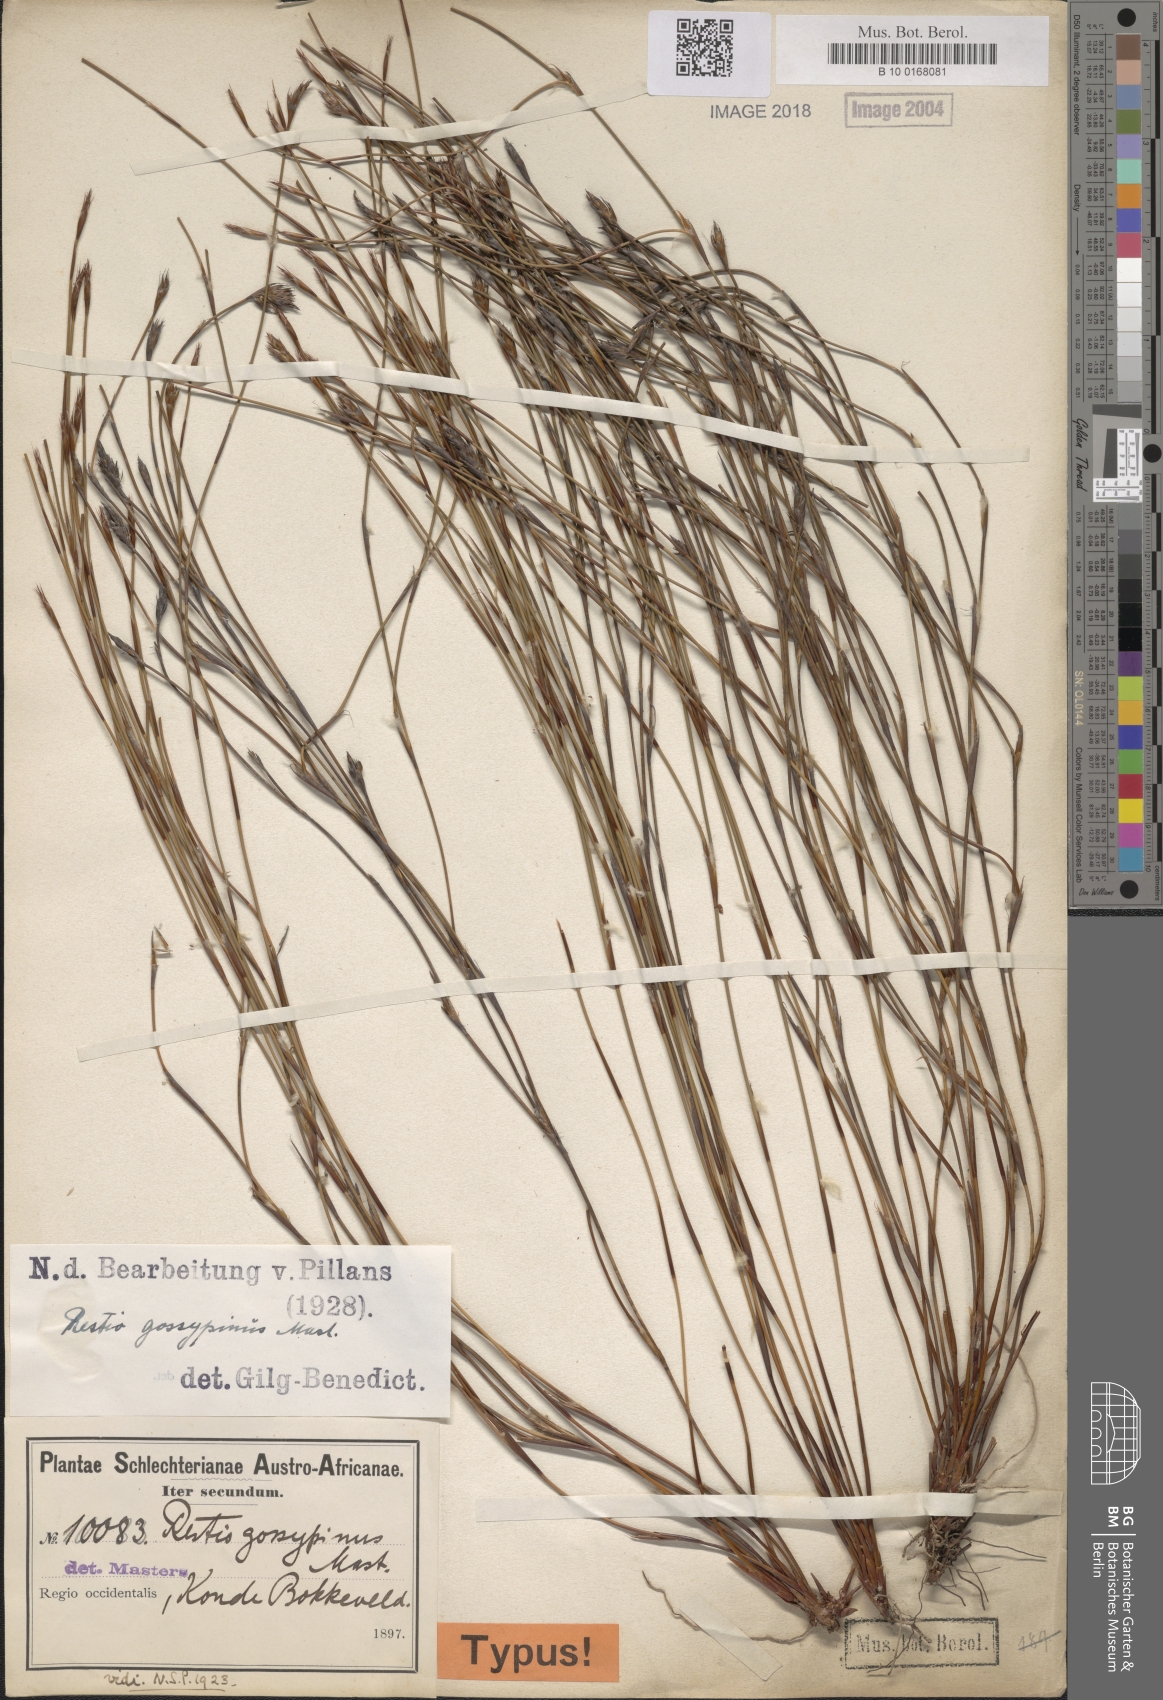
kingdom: Plantae
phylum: Tracheophyta
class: Liliopsida
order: Poales
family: Restionaceae
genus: Restio
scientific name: Restio gossypinus
